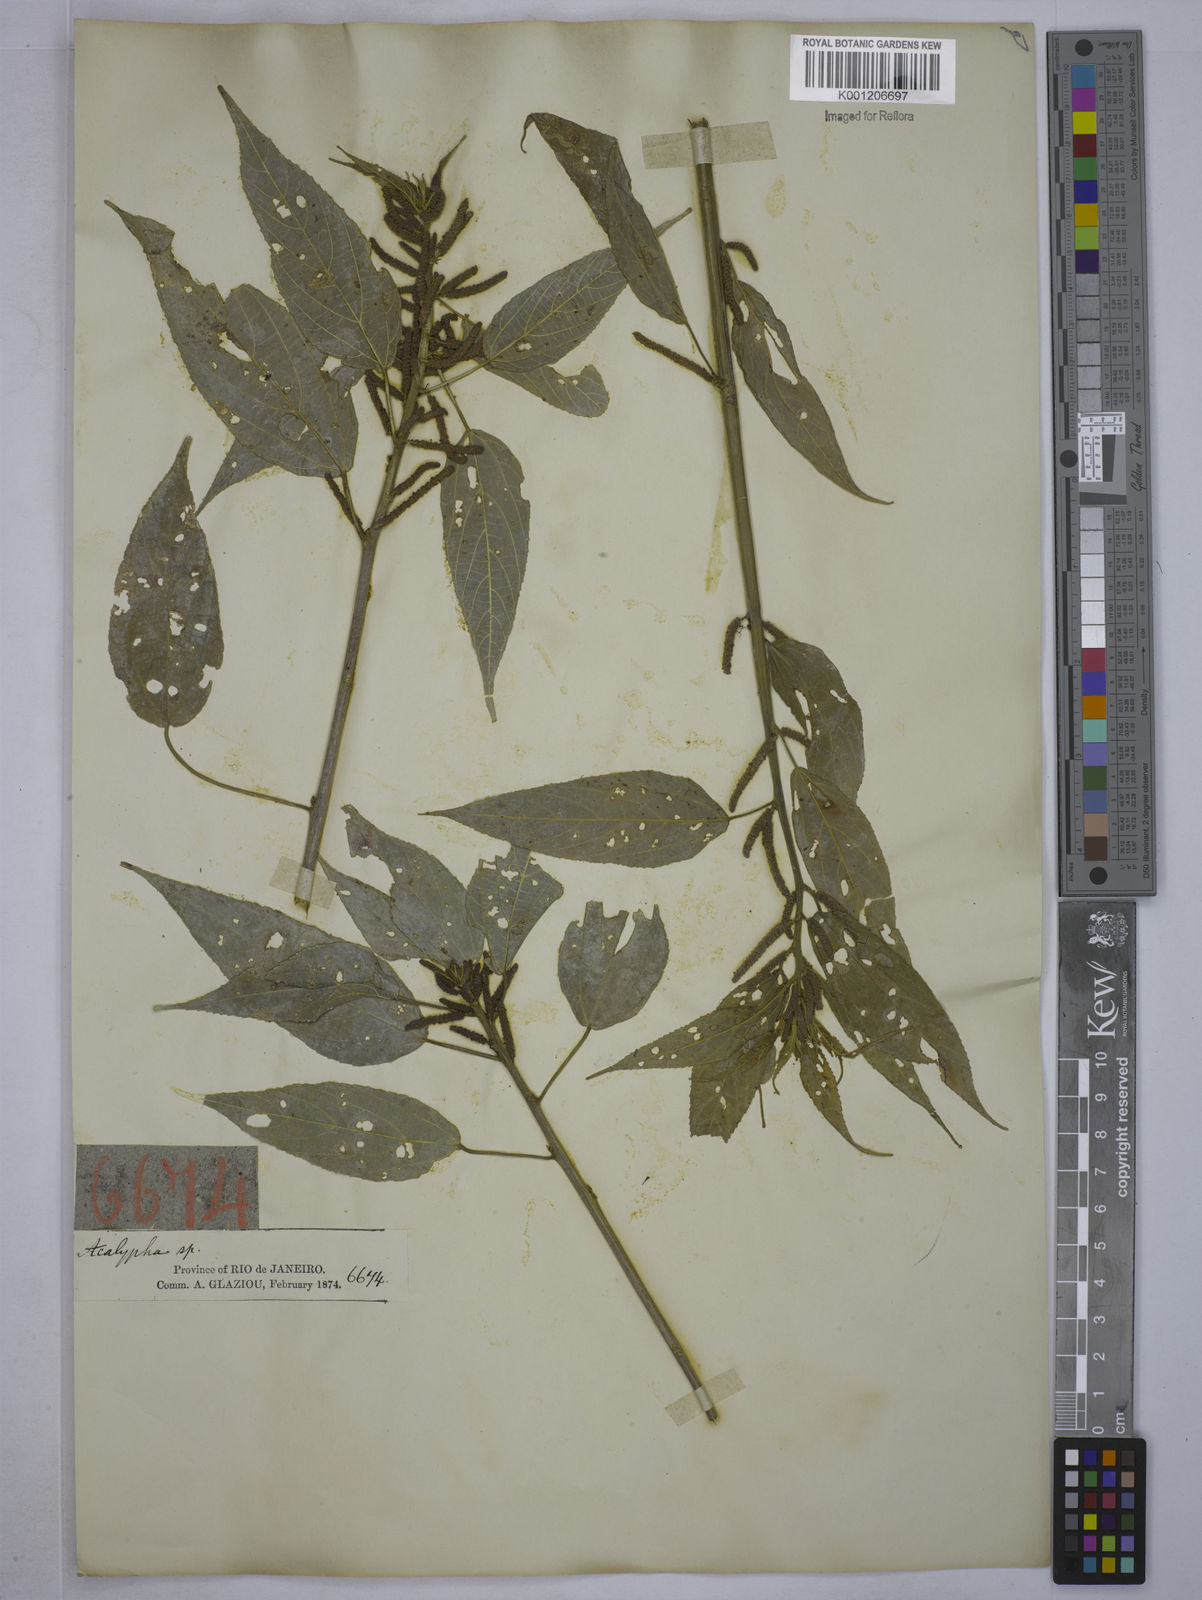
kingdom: Plantae
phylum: Tracheophyta
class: Magnoliopsida
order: Malpighiales
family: Euphorbiaceae
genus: Acalypha
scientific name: Acalypha klotzschii
